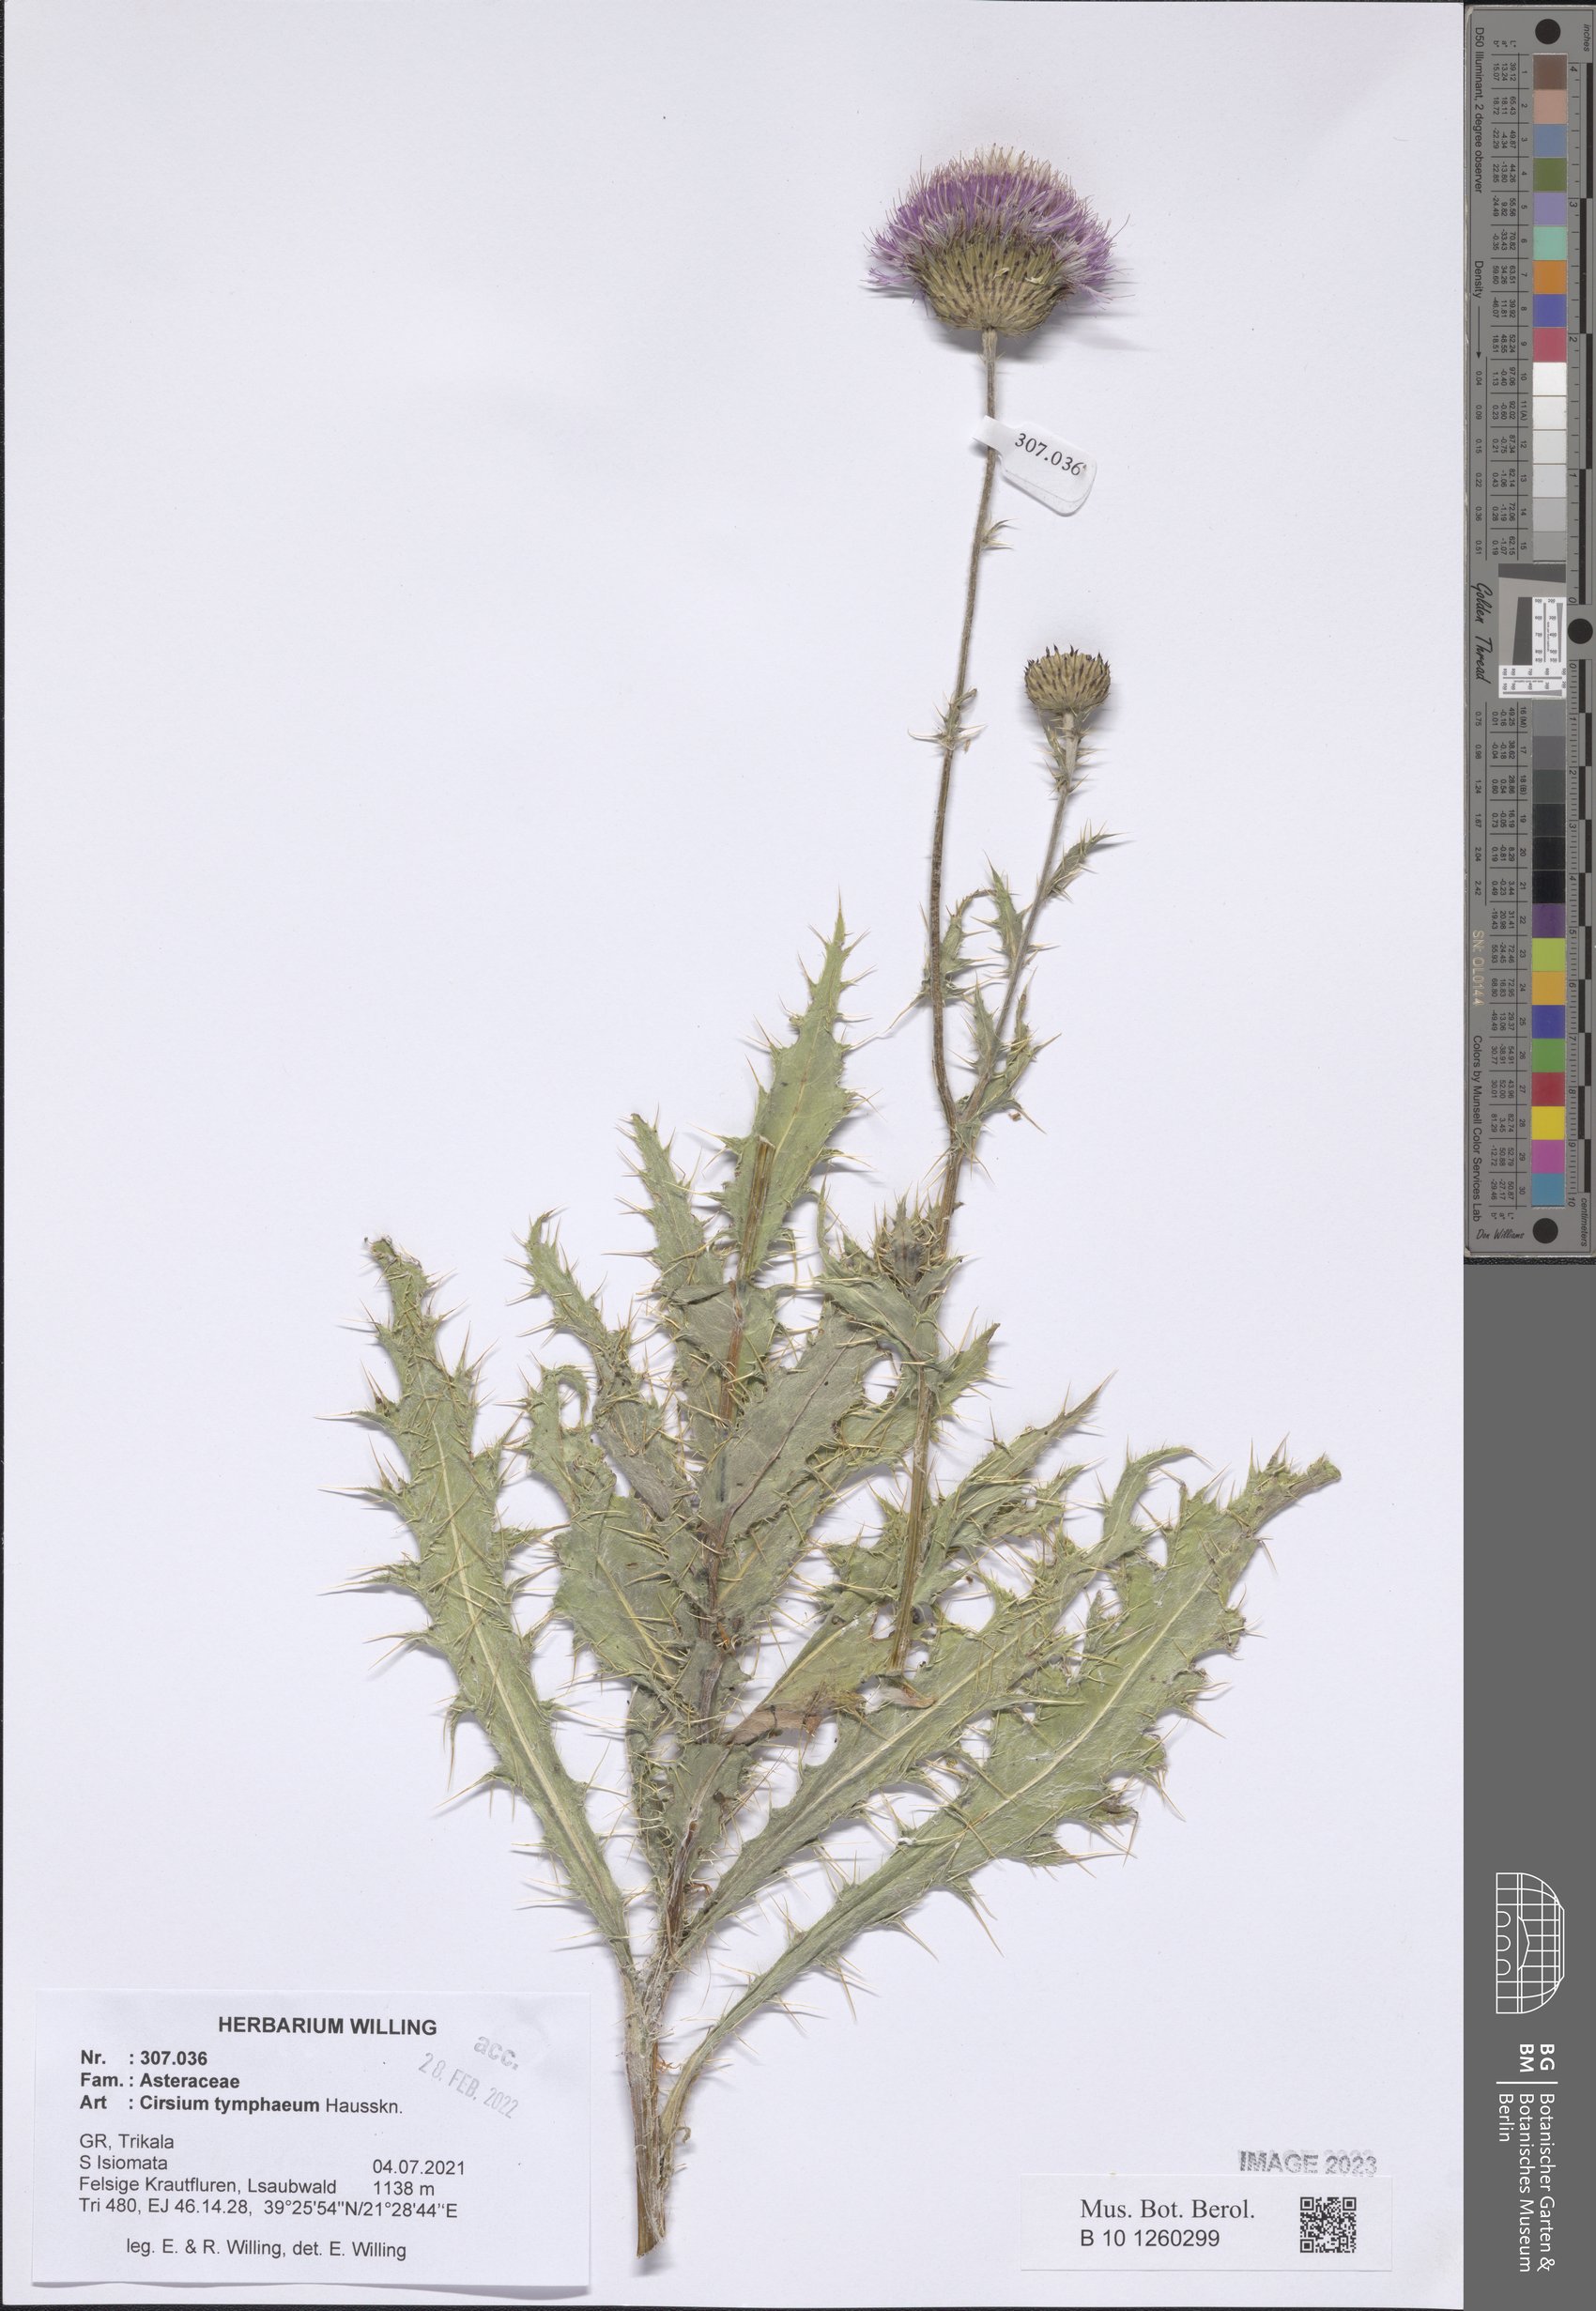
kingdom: Plantae
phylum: Tracheophyta
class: Magnoliopsida
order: Asterales
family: Asteraceae
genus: Cirsium
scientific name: Cirsium tymphaeum
